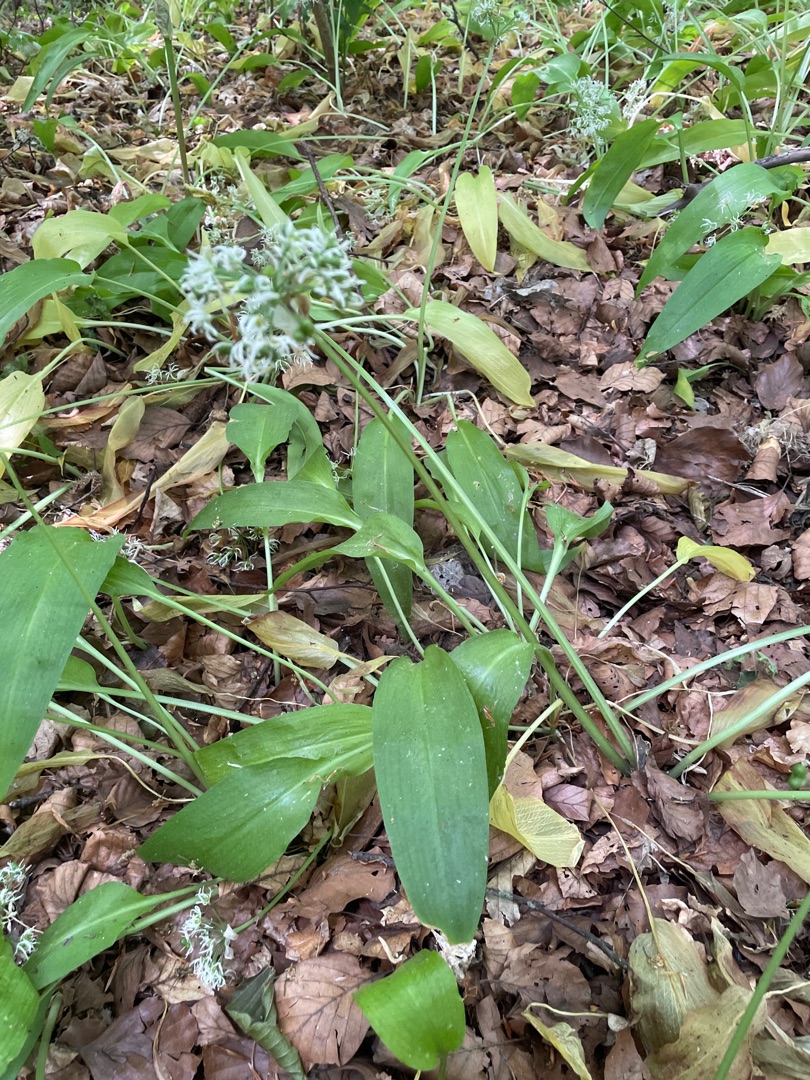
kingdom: Plantae
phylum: Tracheophyta
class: Liliopsida
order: Asparagales
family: Amaryllidaceae
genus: Allium
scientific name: Allium ursinum
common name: Rams-løg
